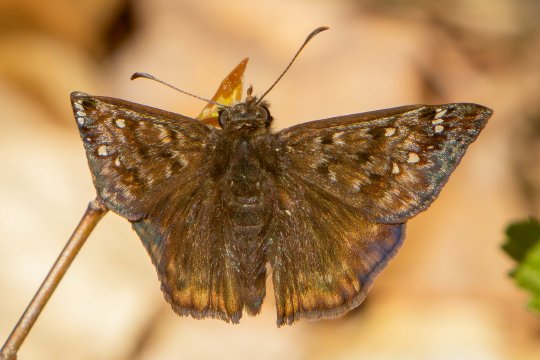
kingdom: Animalia
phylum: Arthropoda
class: Insecta
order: Lepidoptera
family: Hesperiidae
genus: Gesta
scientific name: Gesta
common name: Juvenal's Duskywing
